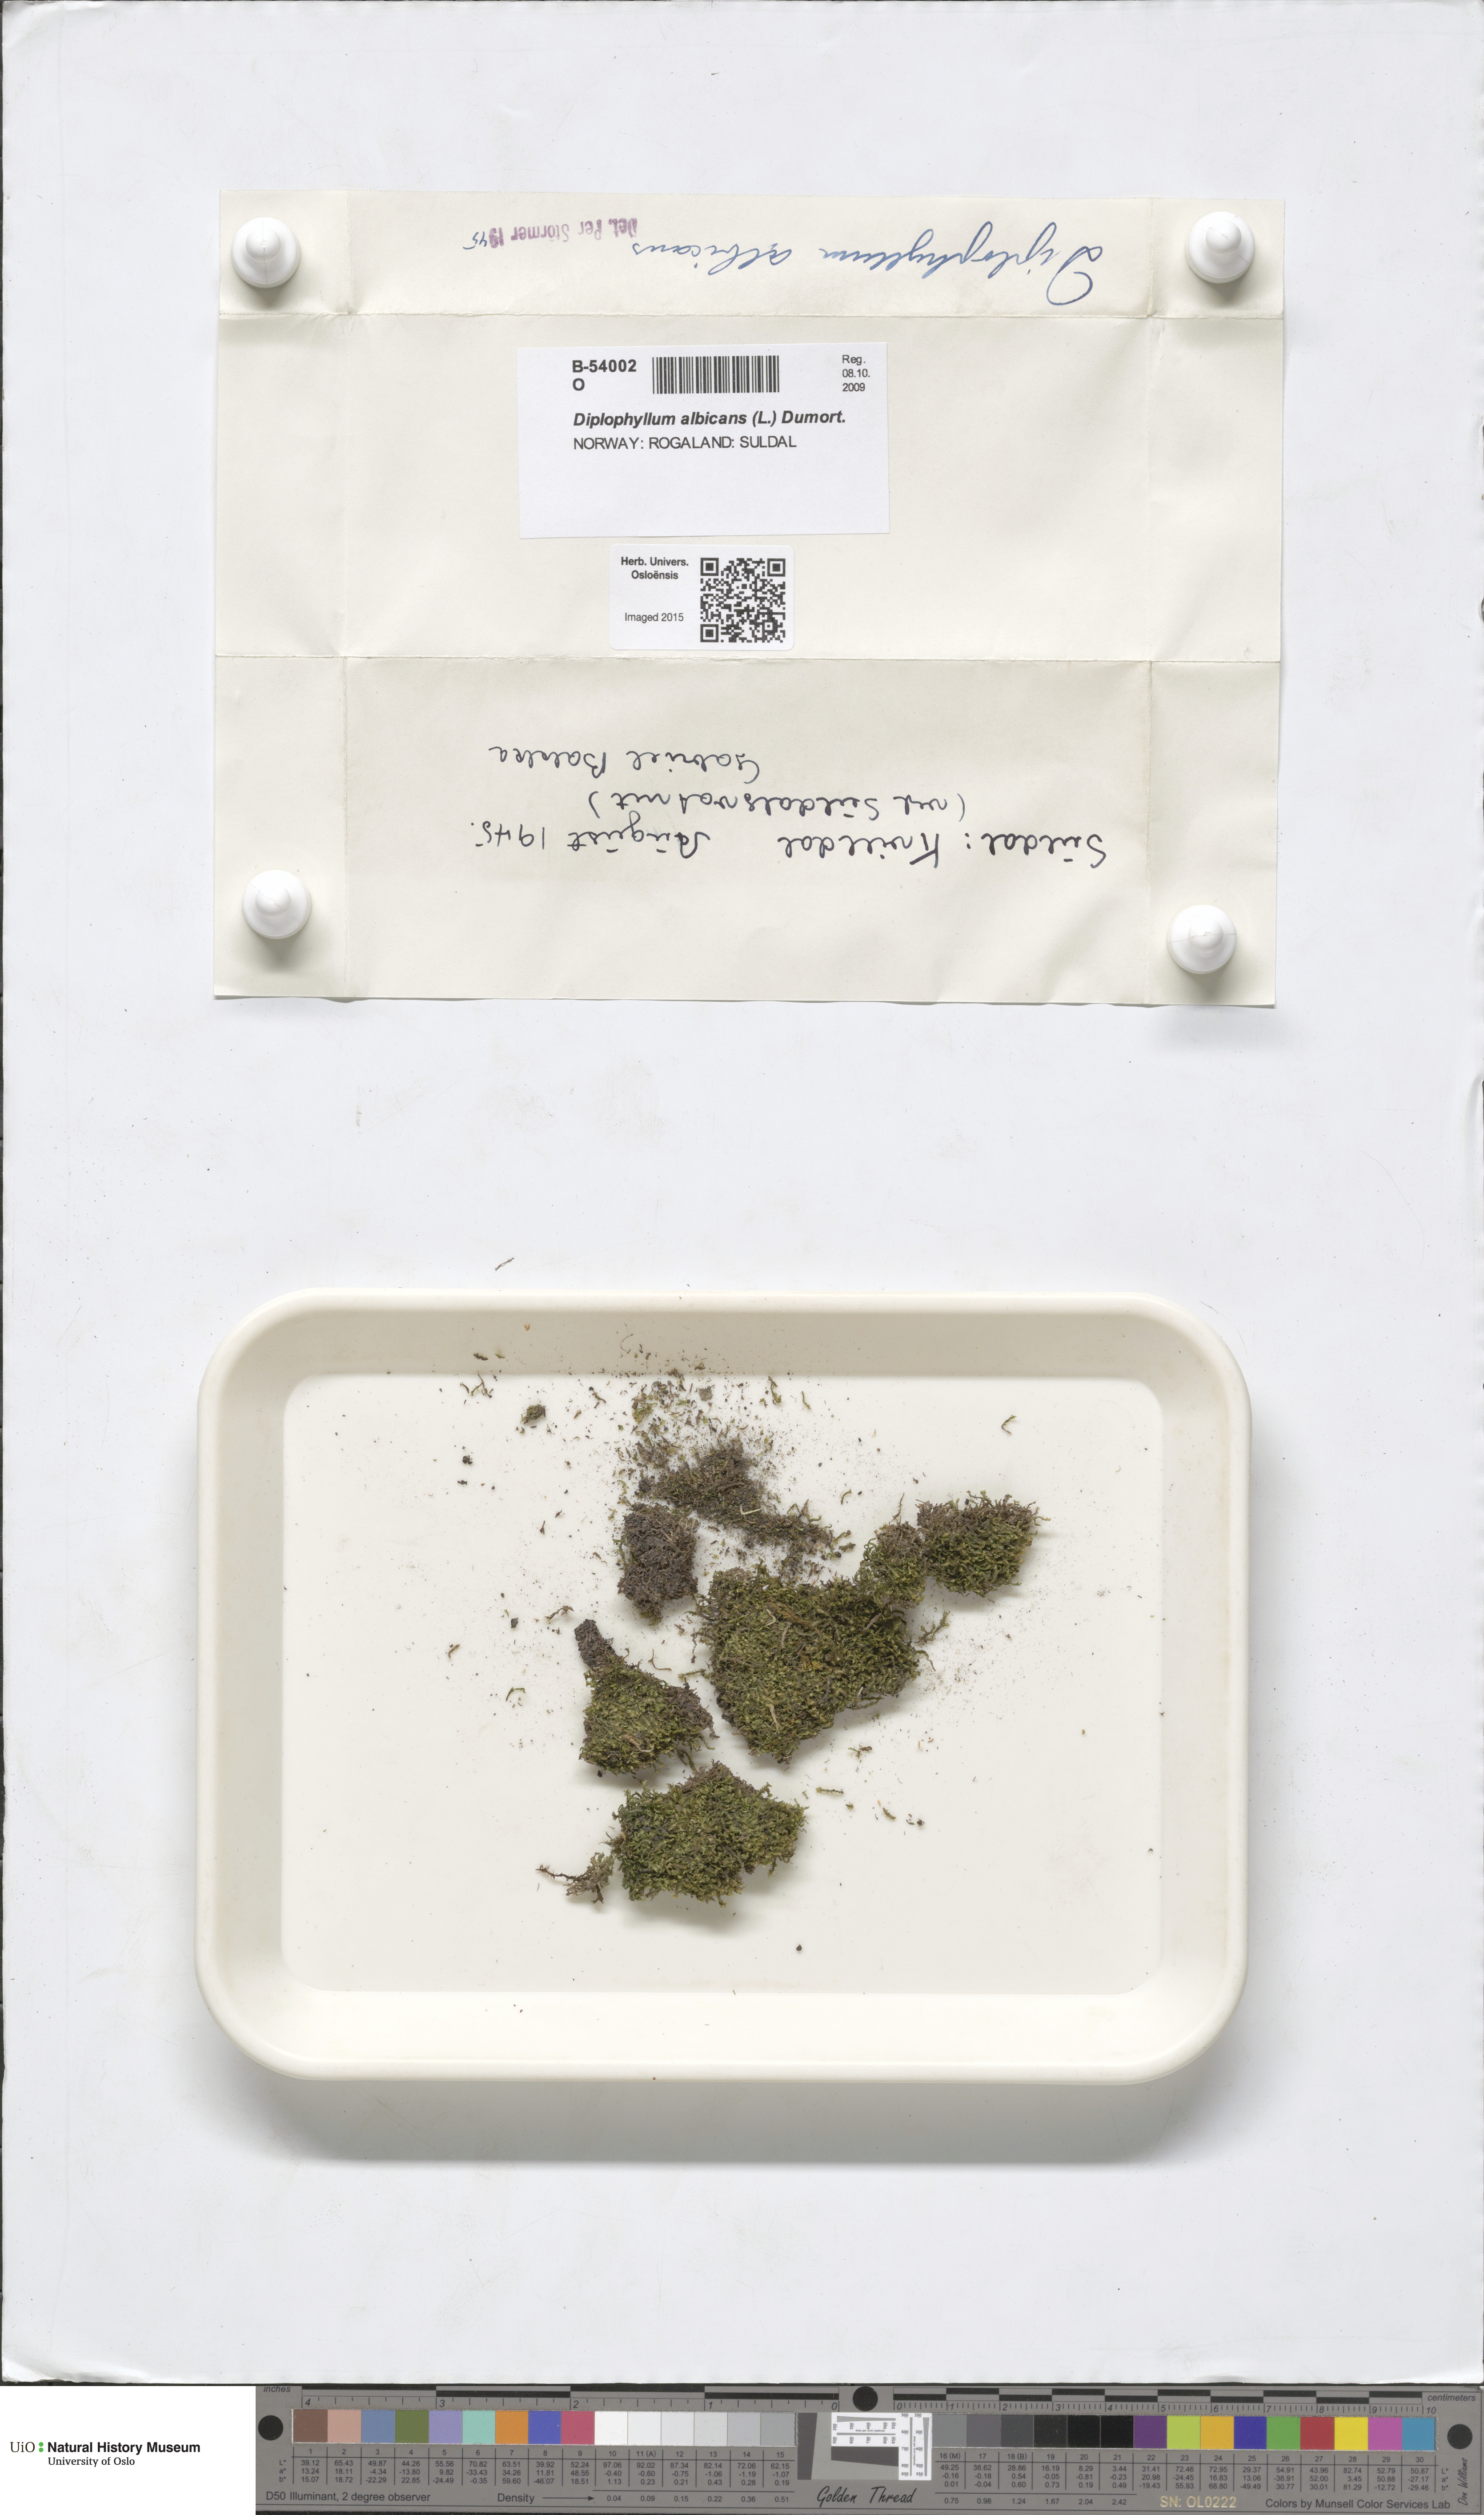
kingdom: Plantae
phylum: Marchantiophyta
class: Jungermanniopsida
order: Jungermanniales
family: Scapaniaceae
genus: Diplophyllum
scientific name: Diplophyllum albicans
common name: White earwort
